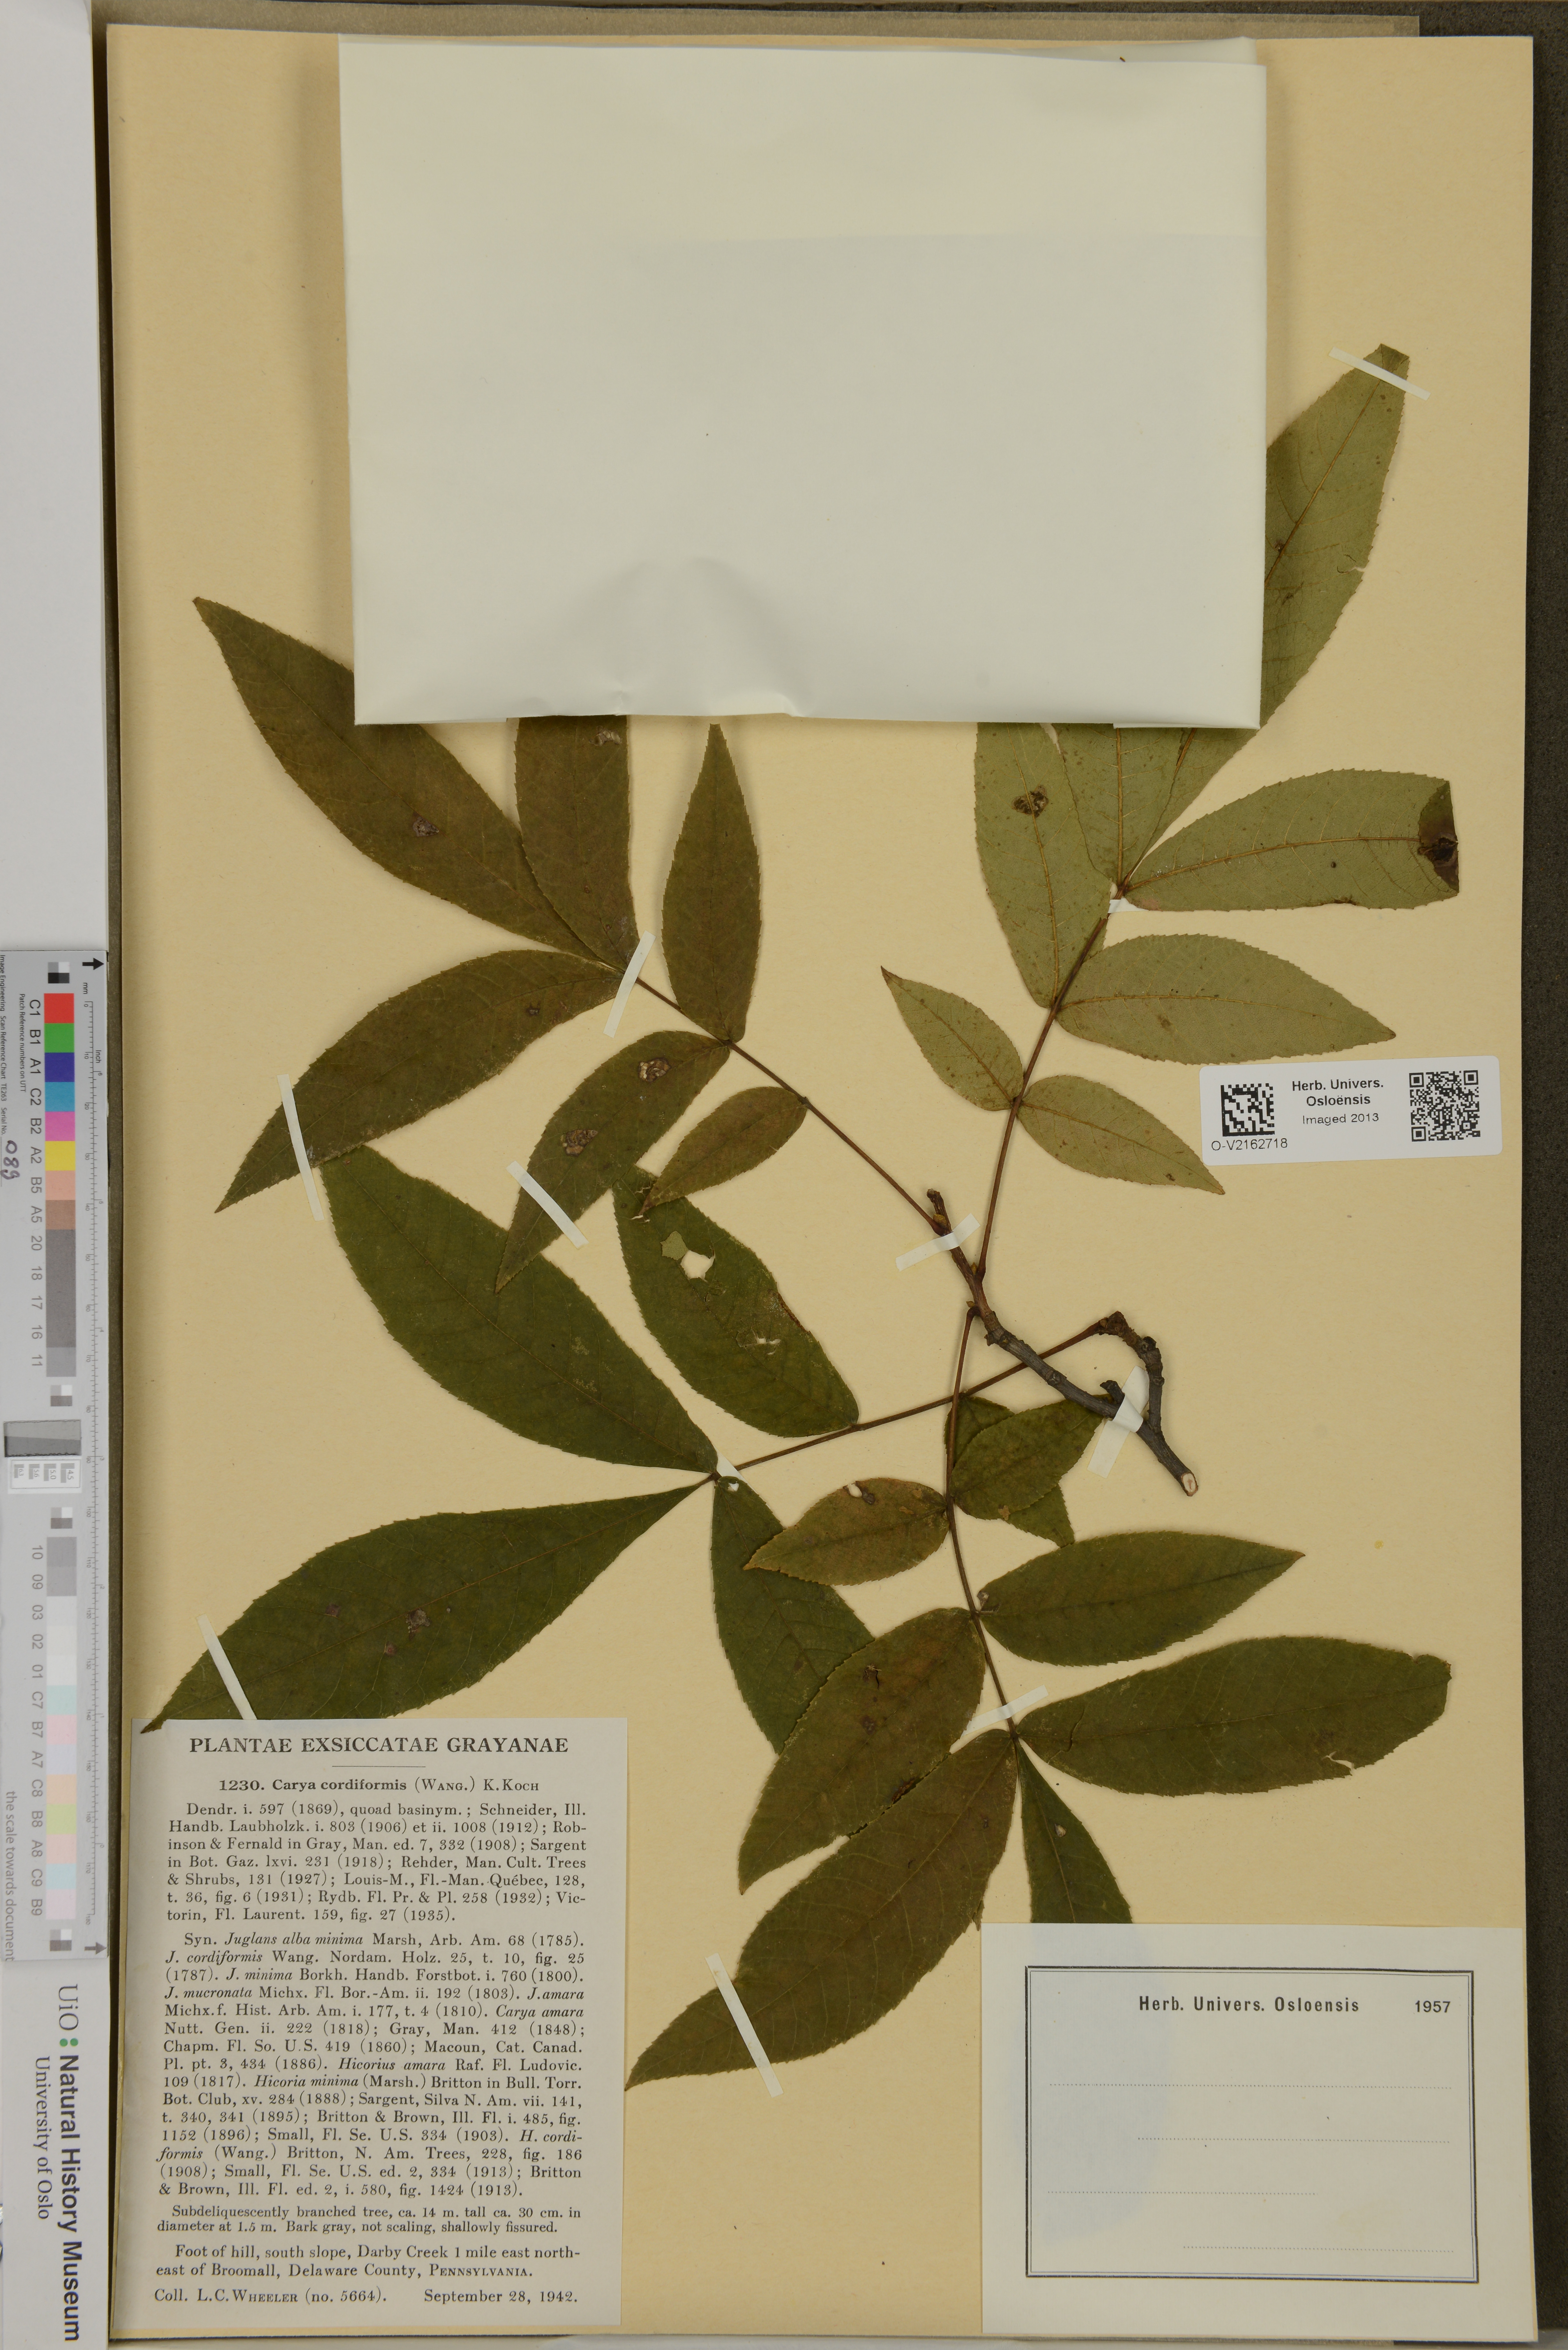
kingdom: Plantae
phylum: Tracheophyta
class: Magnoliopsida
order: Fagales
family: Juglandaceae
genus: Carya
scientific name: Carya cordiformis
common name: Bitternut hickory
